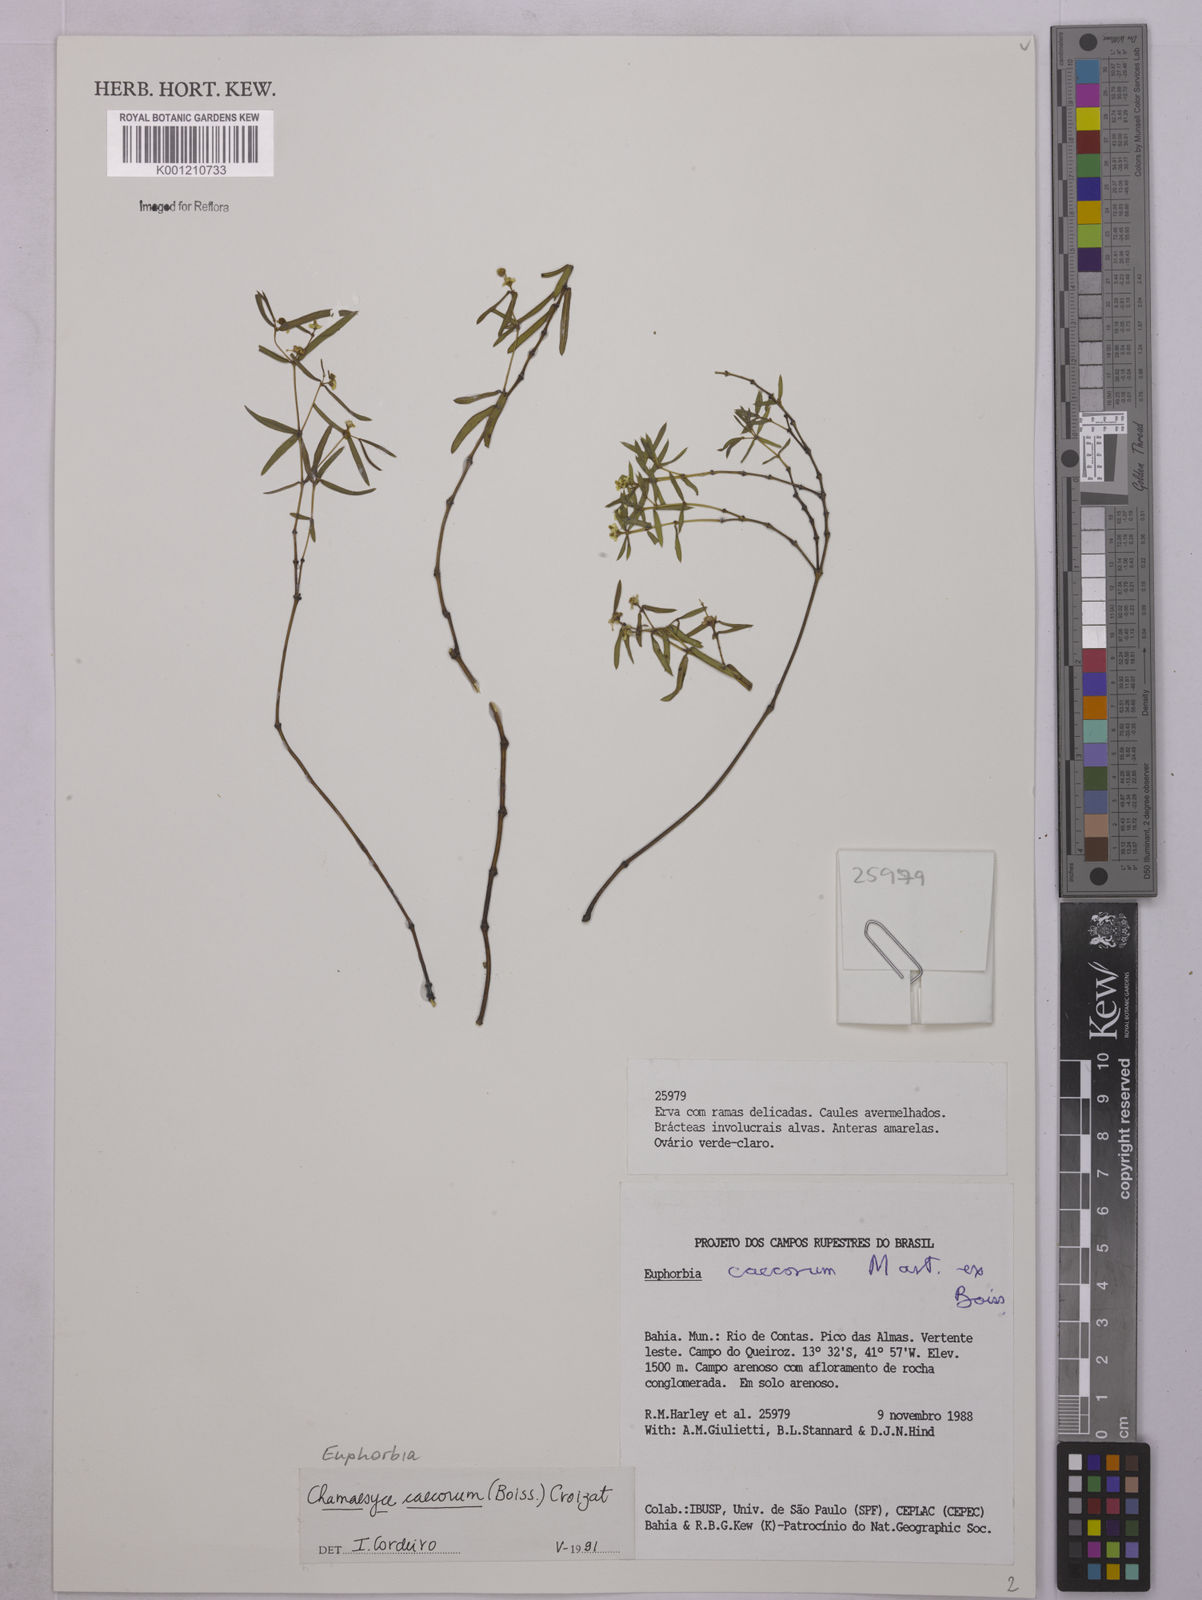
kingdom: Plantae
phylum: Tracheophyta
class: Magnoliopsida
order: Malpighiales
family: Euphorbiaceae
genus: Euphorbia
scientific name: Euphorbia potentilloides
